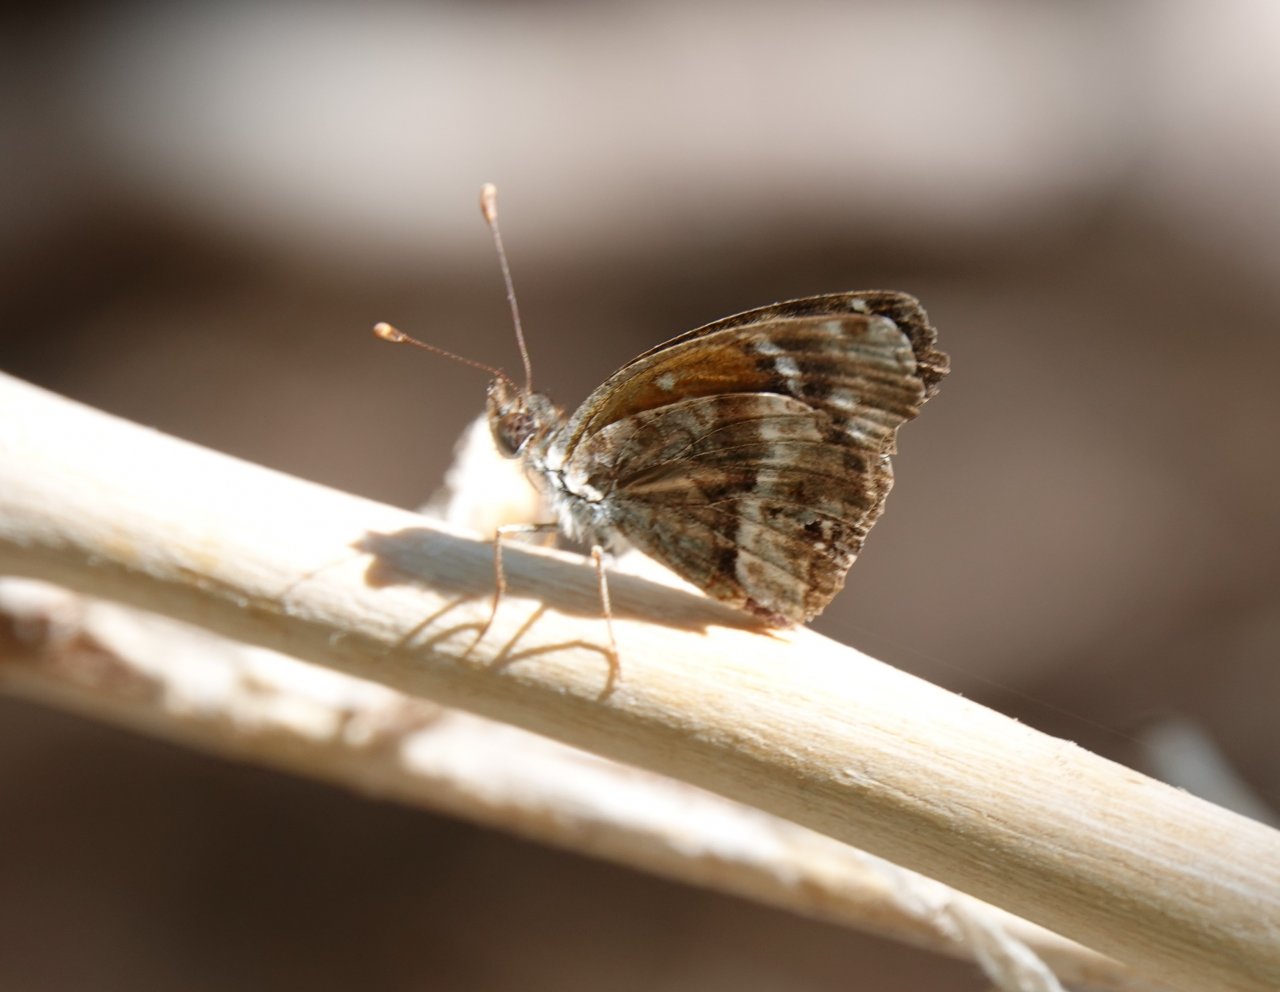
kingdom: Animalia
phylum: Arthropoda
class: Insecta
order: Lepidoptera
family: Nymphalidae
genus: Anthanassa
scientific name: Anthanassa texana
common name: Texan Crescent
